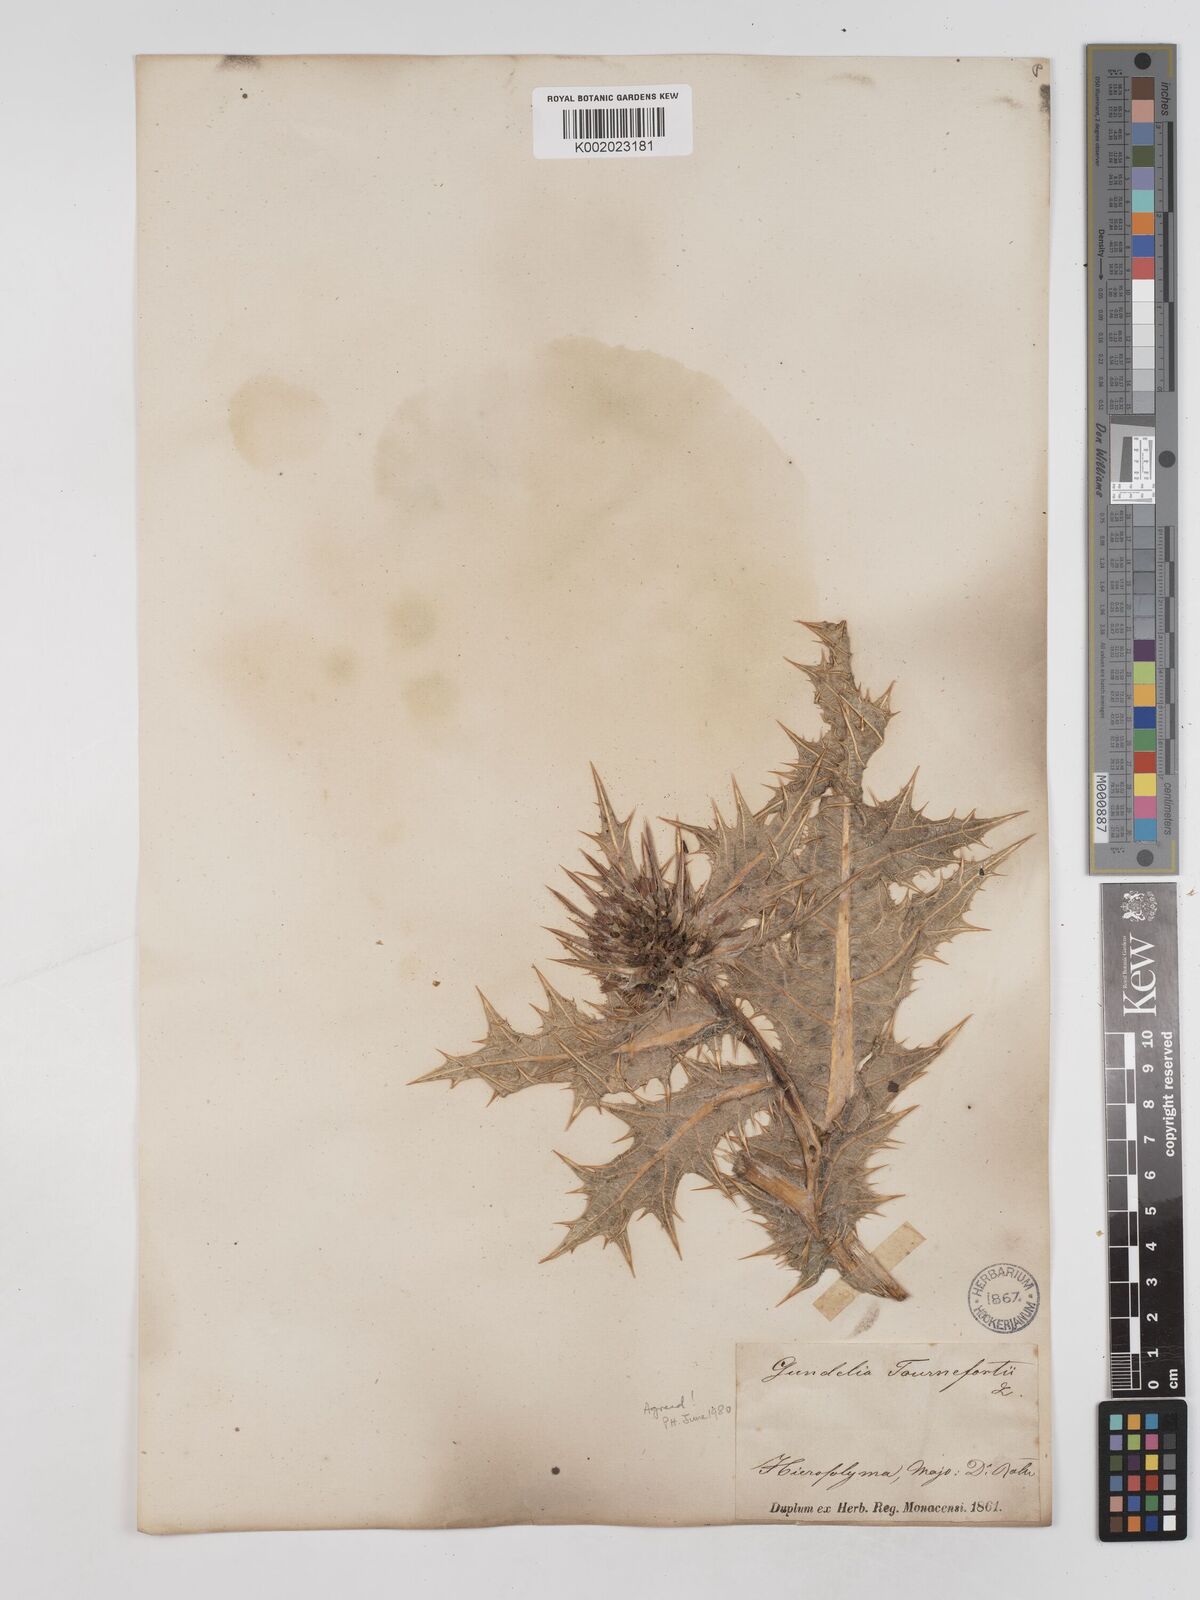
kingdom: Plantae
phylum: Tracheophyta
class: Magnoliopsida
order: Asterales
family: Asteraceae
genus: Gundelia
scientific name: Gundelia tournefortii
